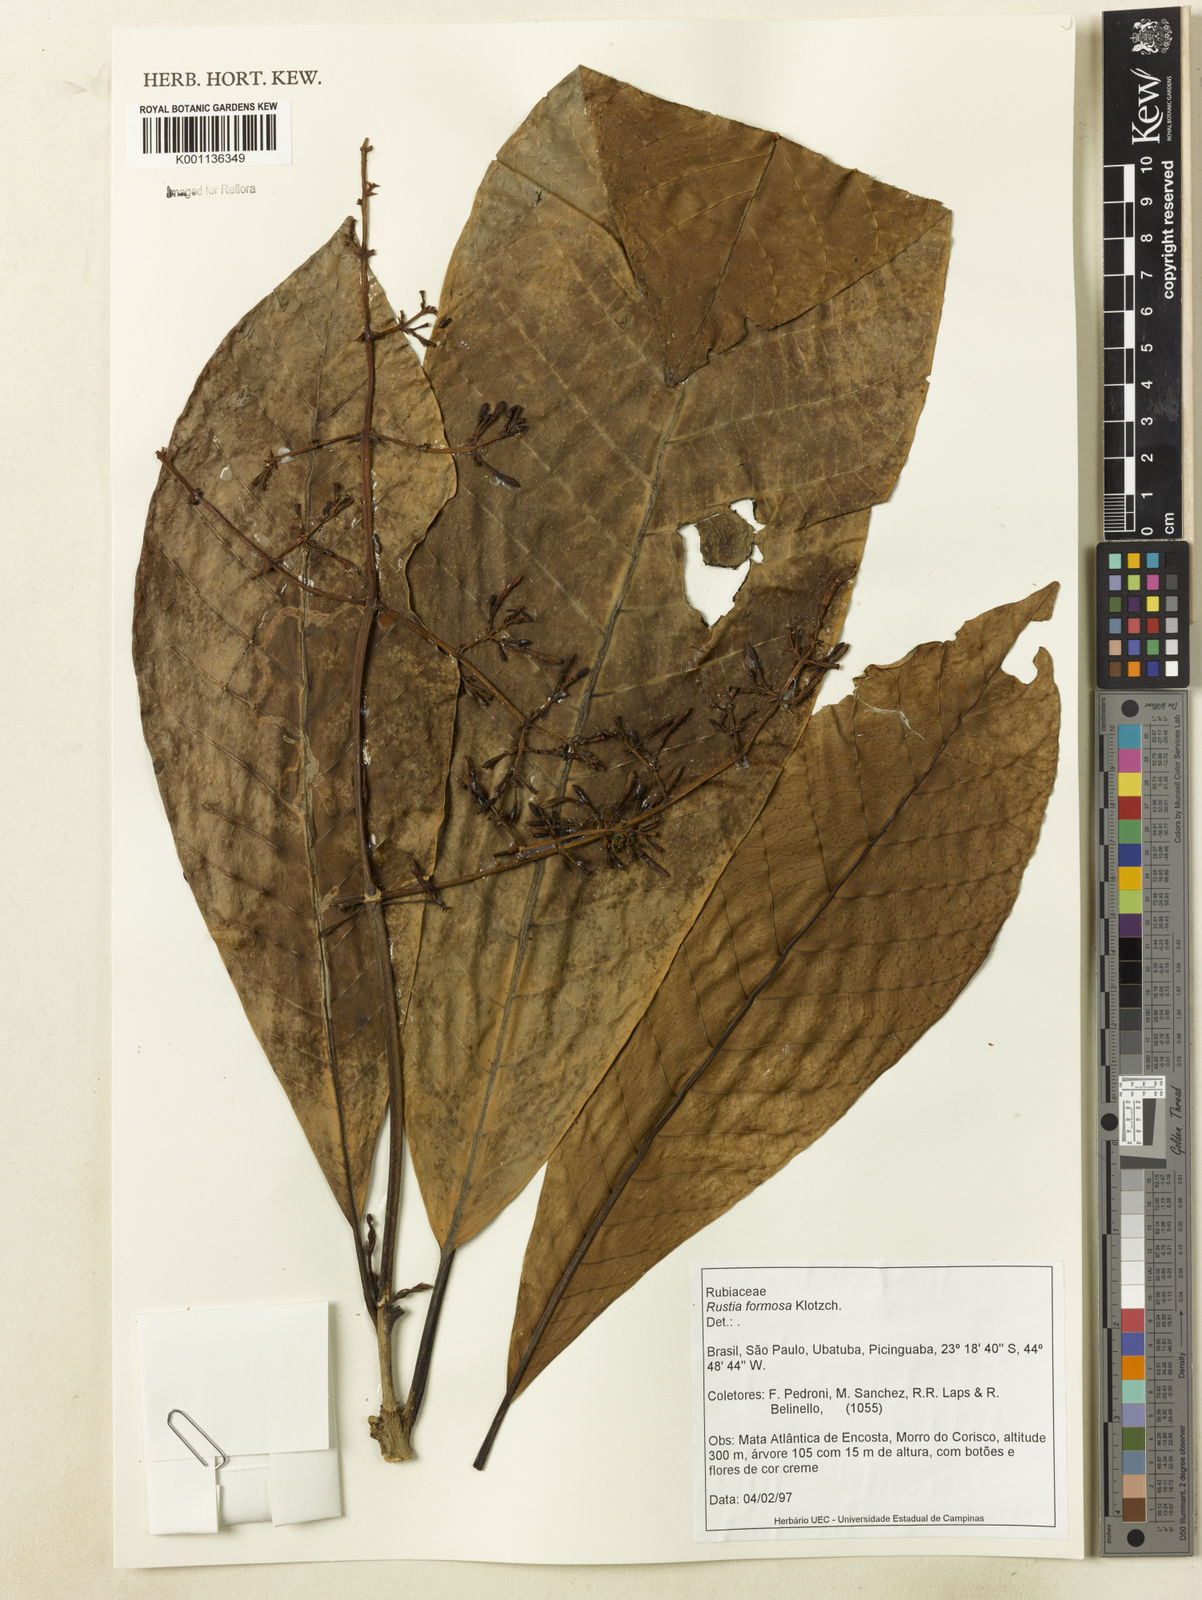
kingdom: Plantae
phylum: Tracheophyta
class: Magnoliopsida
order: Gentianales
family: Rubiaceae
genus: Rustia
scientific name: Rustia formosa
